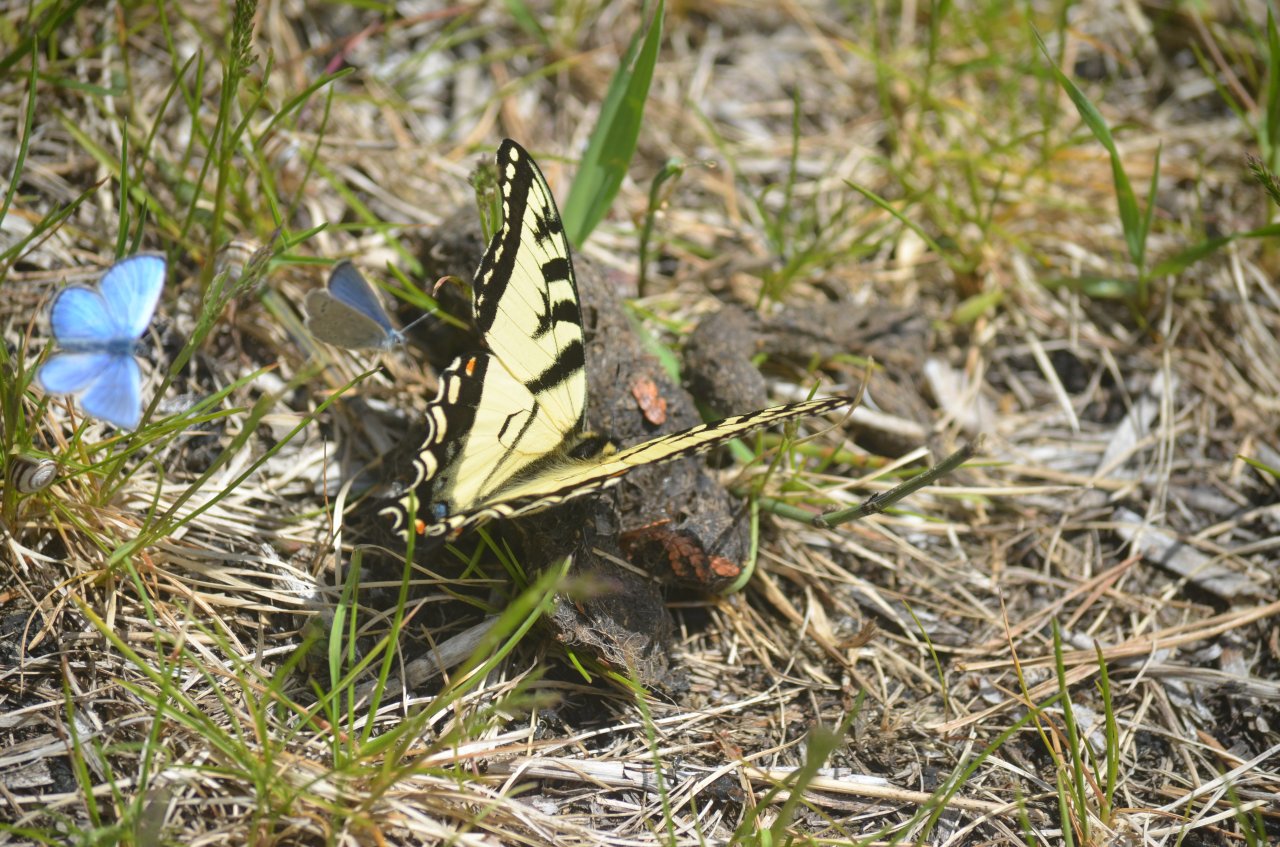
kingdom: Animalia
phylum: Arthropoda
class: Insecta
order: Lepidoptera
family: Papilionidae
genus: Pterourus
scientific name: Pterourus canadensis
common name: Canadian Tiger Swallowtail
